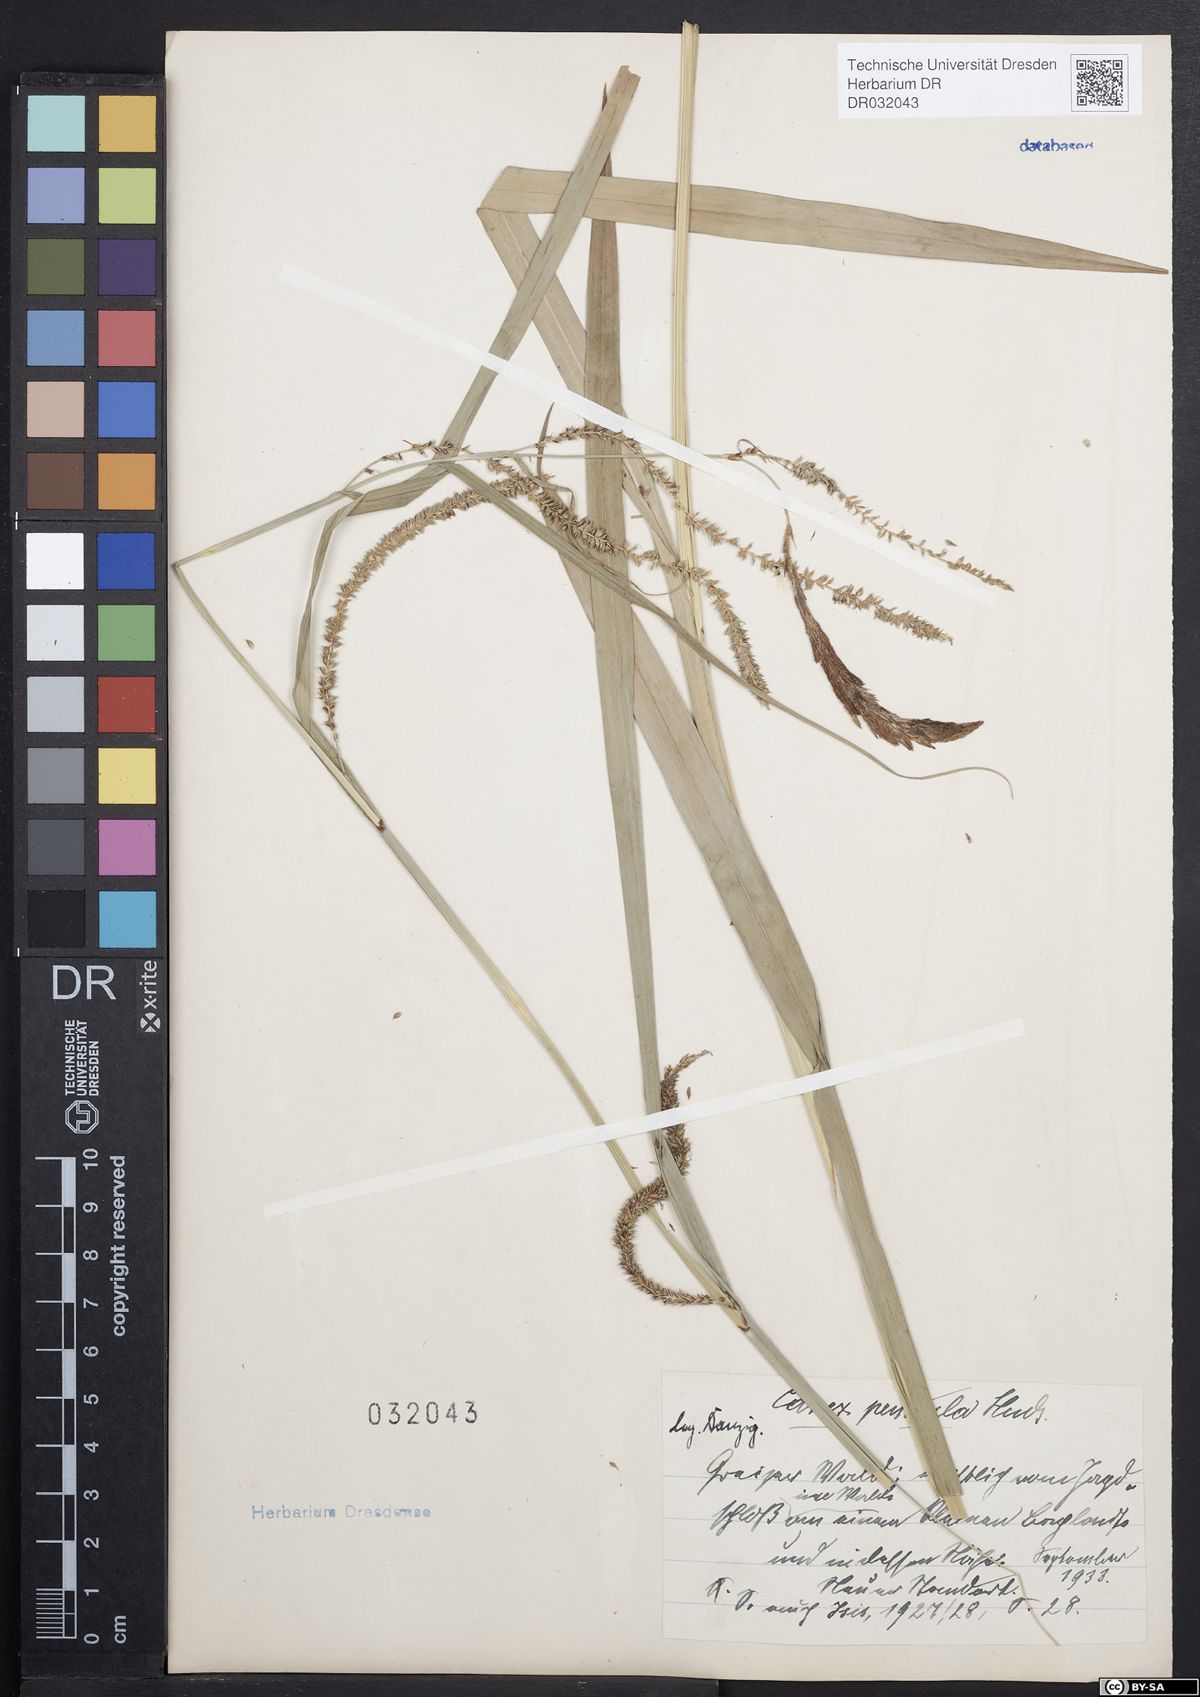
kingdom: Plantae
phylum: Tracheophyta
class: Liliopsida
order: Poales
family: Cyperaceae
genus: Carex
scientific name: Carex pendula
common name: Pendulous sedge
